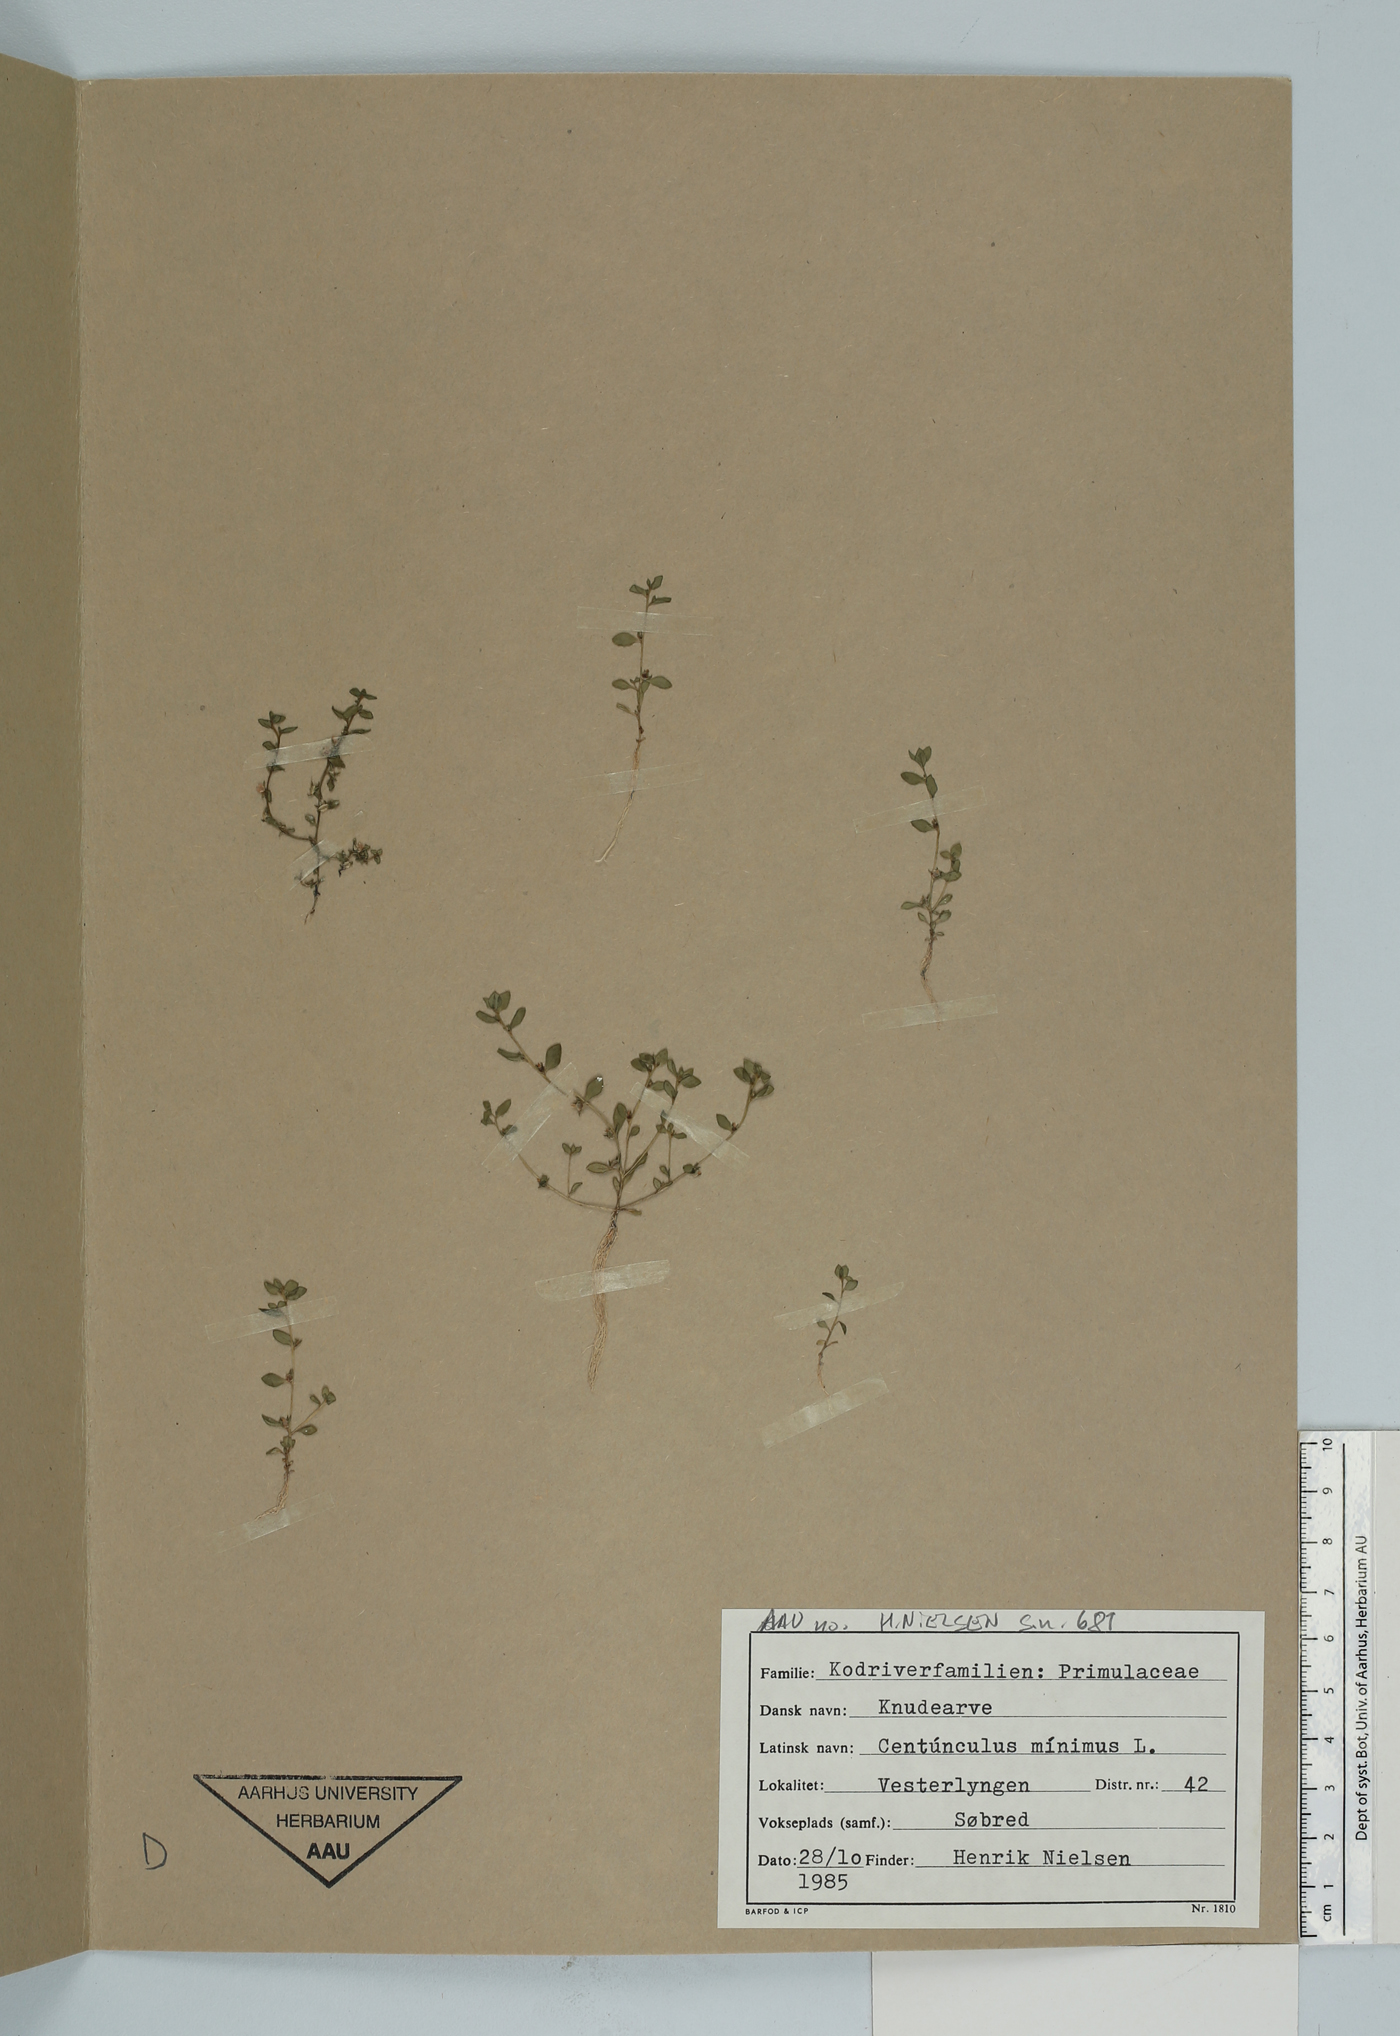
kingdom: Plantae
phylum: Tracheophyta
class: Magnoliopsida
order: Ericales
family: Primulaceae
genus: Lysimachia
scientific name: Lysimachia minima
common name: Chaffweed
